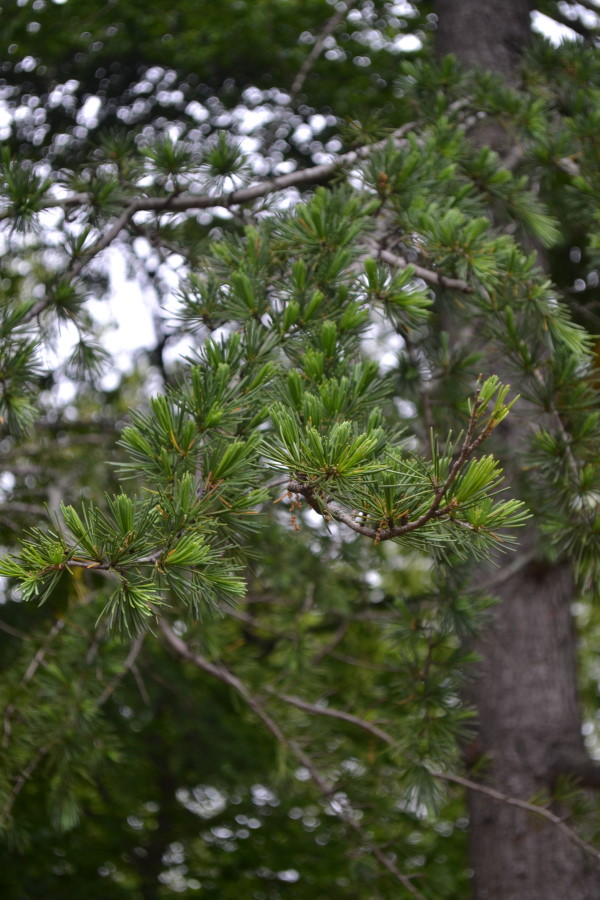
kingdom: Plantae
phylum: Tracheophyta
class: Pinopsida
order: Pinales
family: Pinaceae
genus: Cedrus
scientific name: Cedrus deodara
